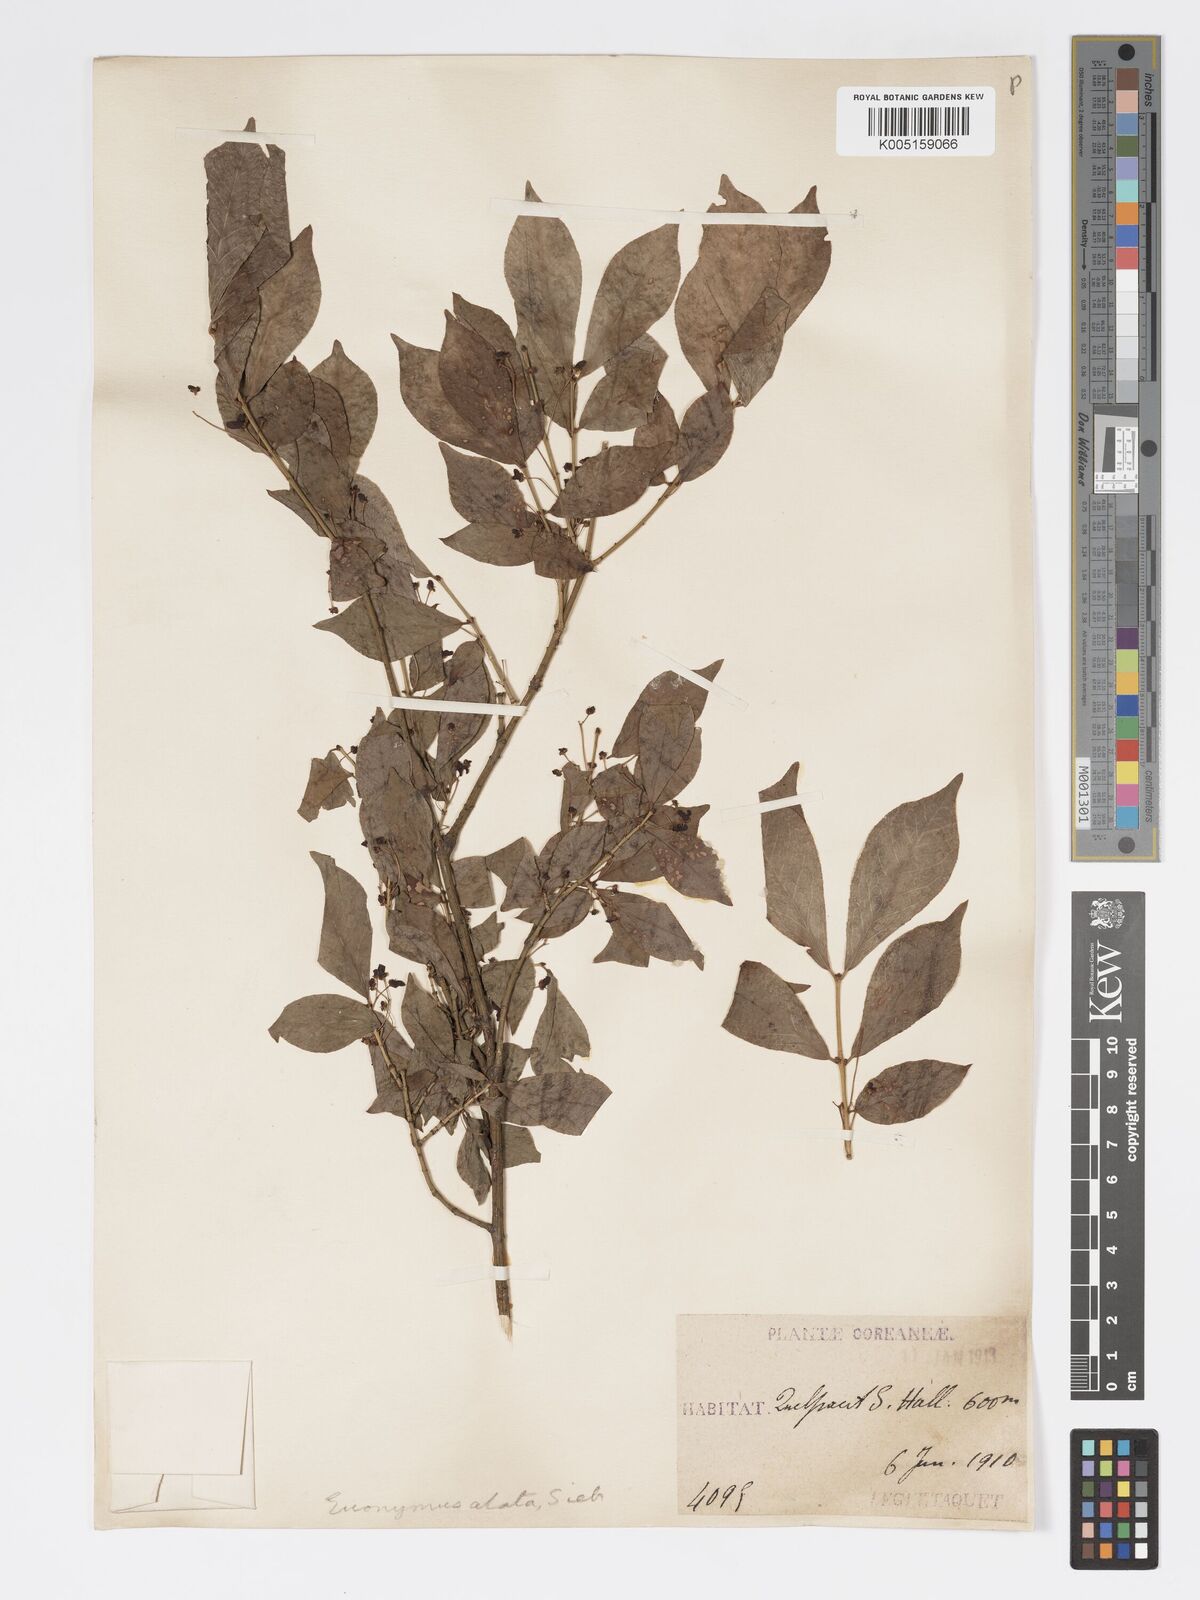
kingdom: Plantae
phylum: Tracheophyta
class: Magnoliopsida
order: Celastrales
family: Celastraceae
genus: Euonymus
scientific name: Euonymus
